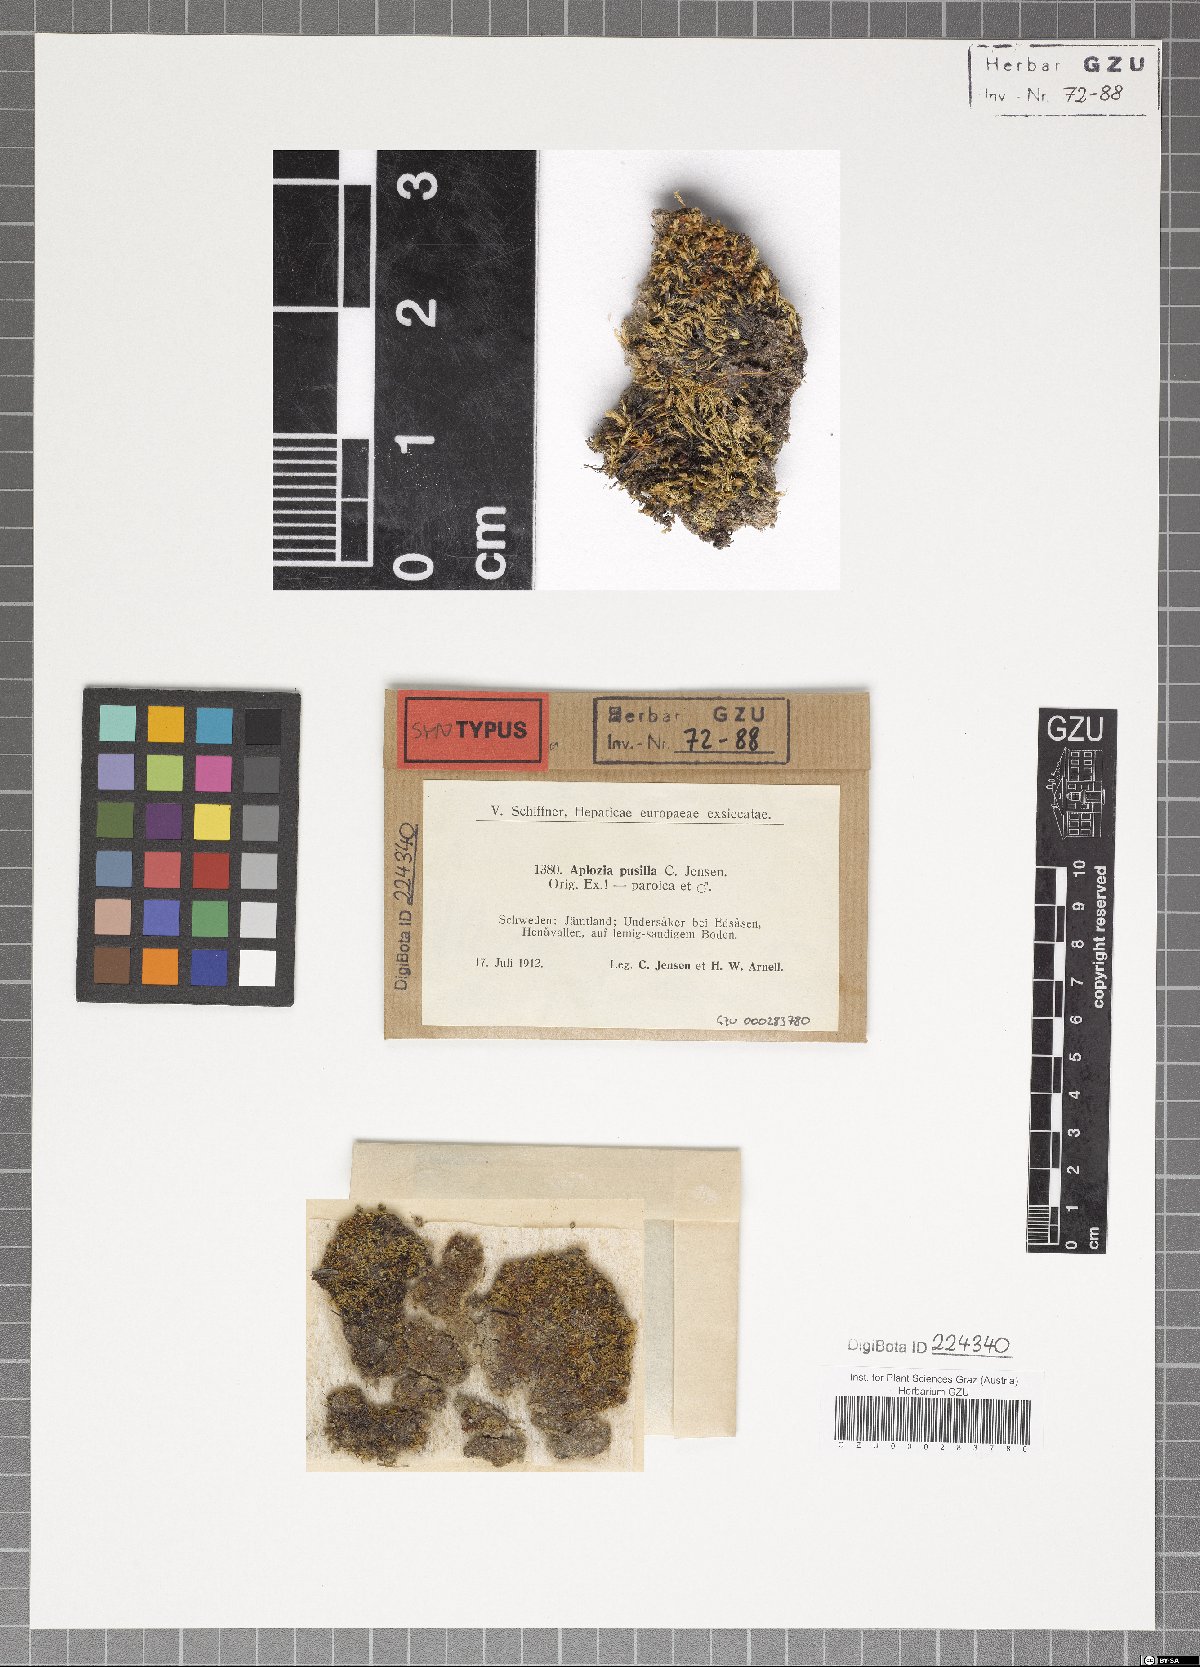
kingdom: Plantae
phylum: Marchantiophyta
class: Jungermanniopsida
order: Jungermanniales
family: Solenostomataceae
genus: Solenostoma
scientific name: Solenostoma sphaerocarpum
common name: Round-fruited flapwort
